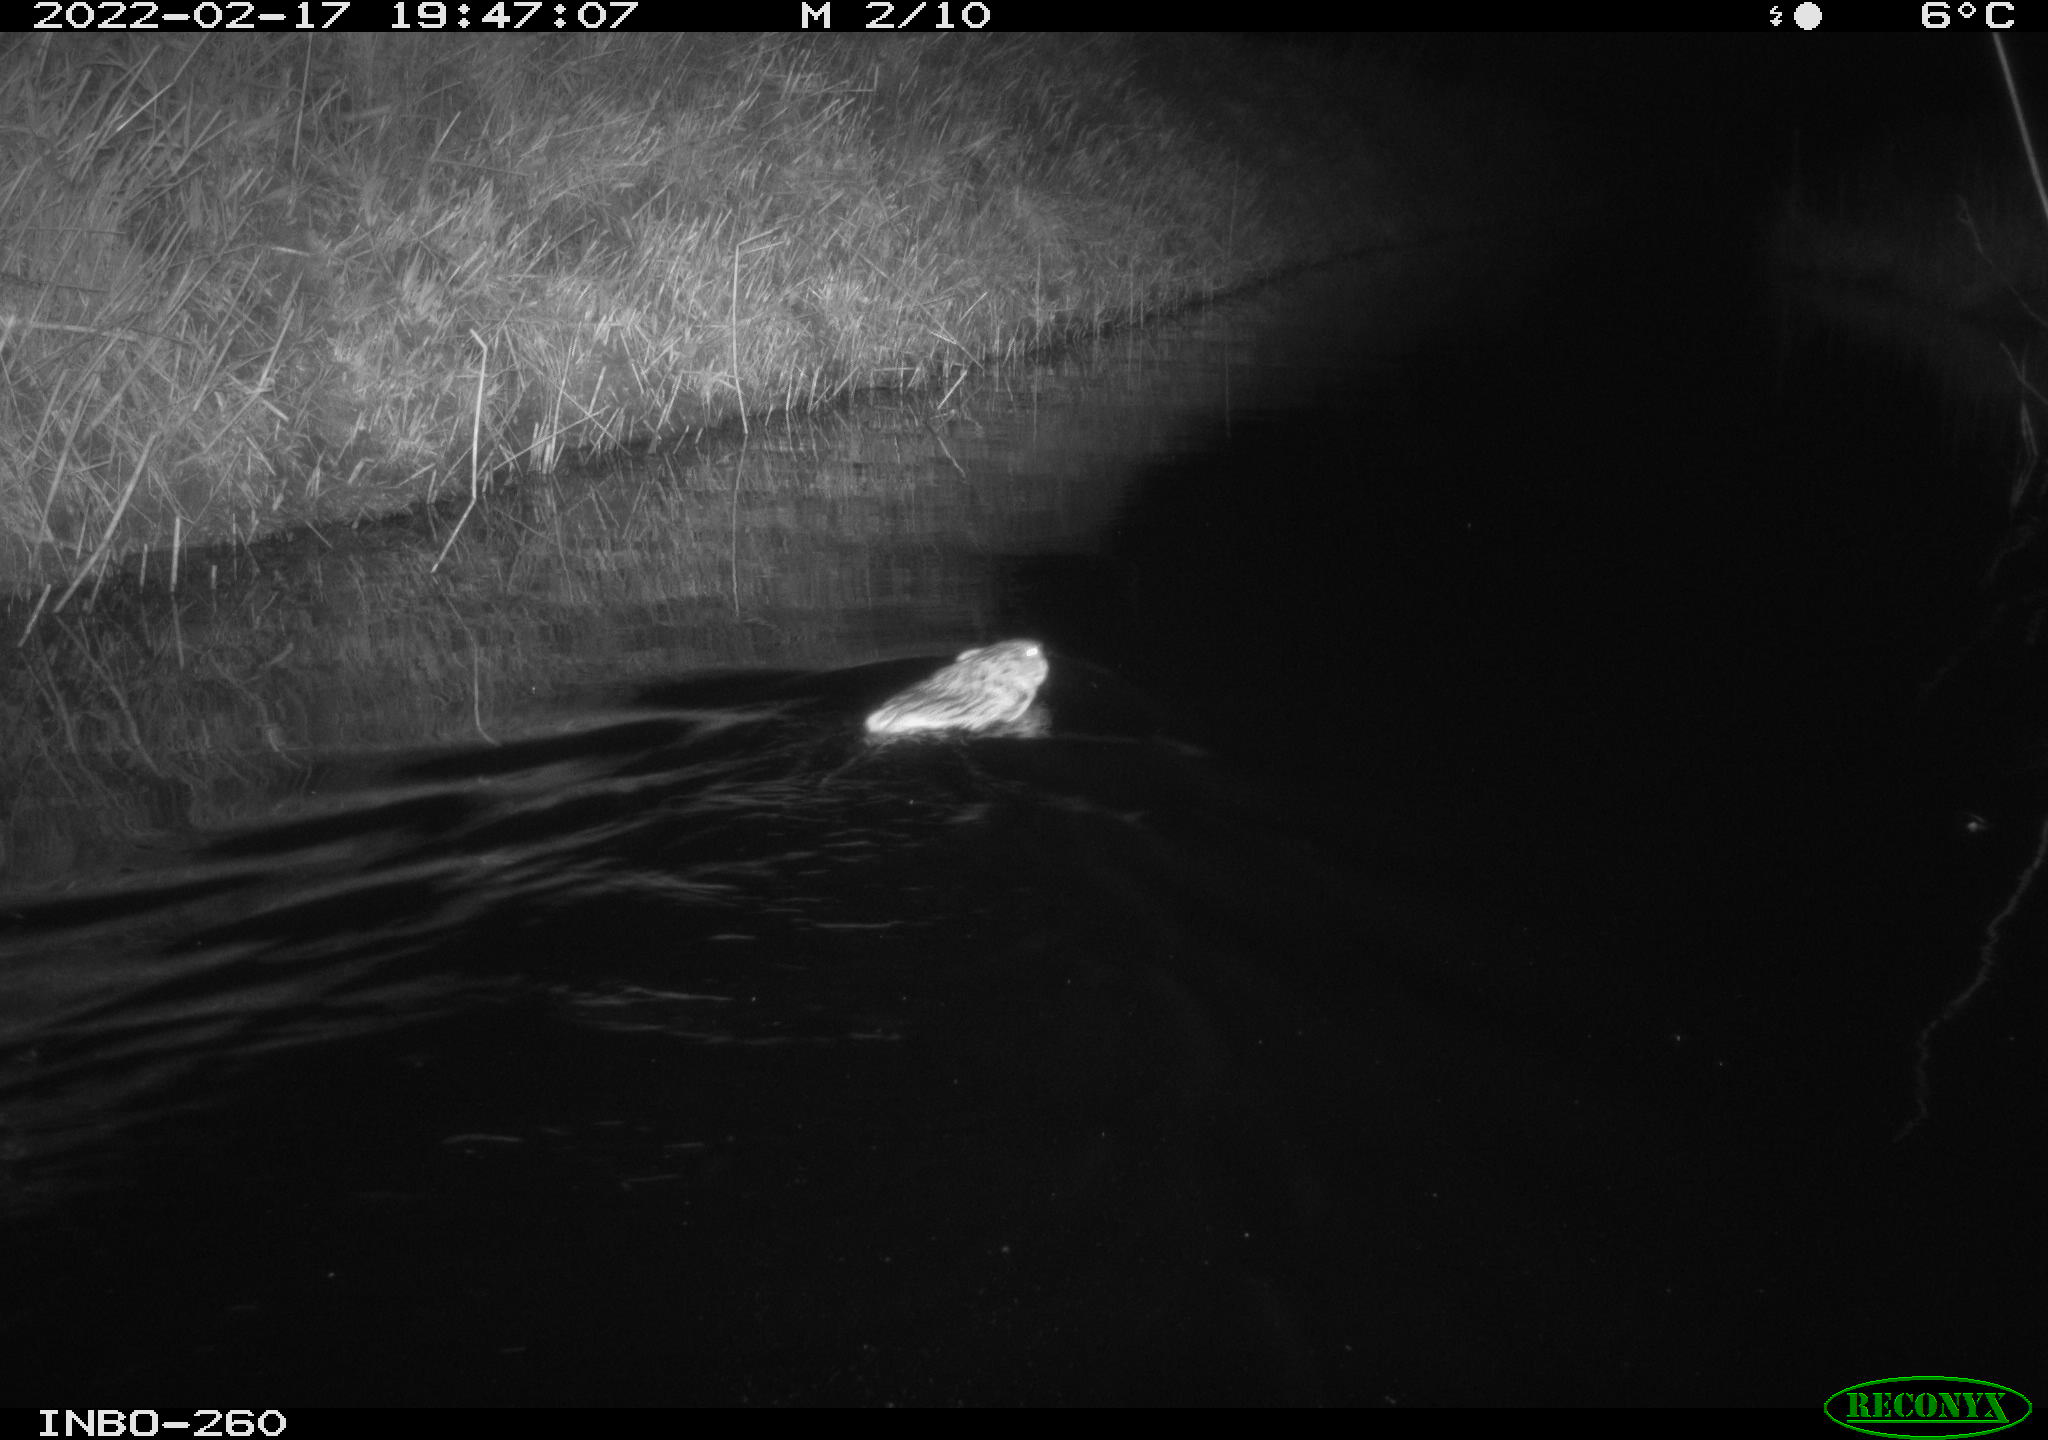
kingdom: Animalia
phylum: Chordata
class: Mammalia
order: Rodentia
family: Cricetidae
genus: Ondatra
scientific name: Ondatra zibethicus
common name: Muskrat
